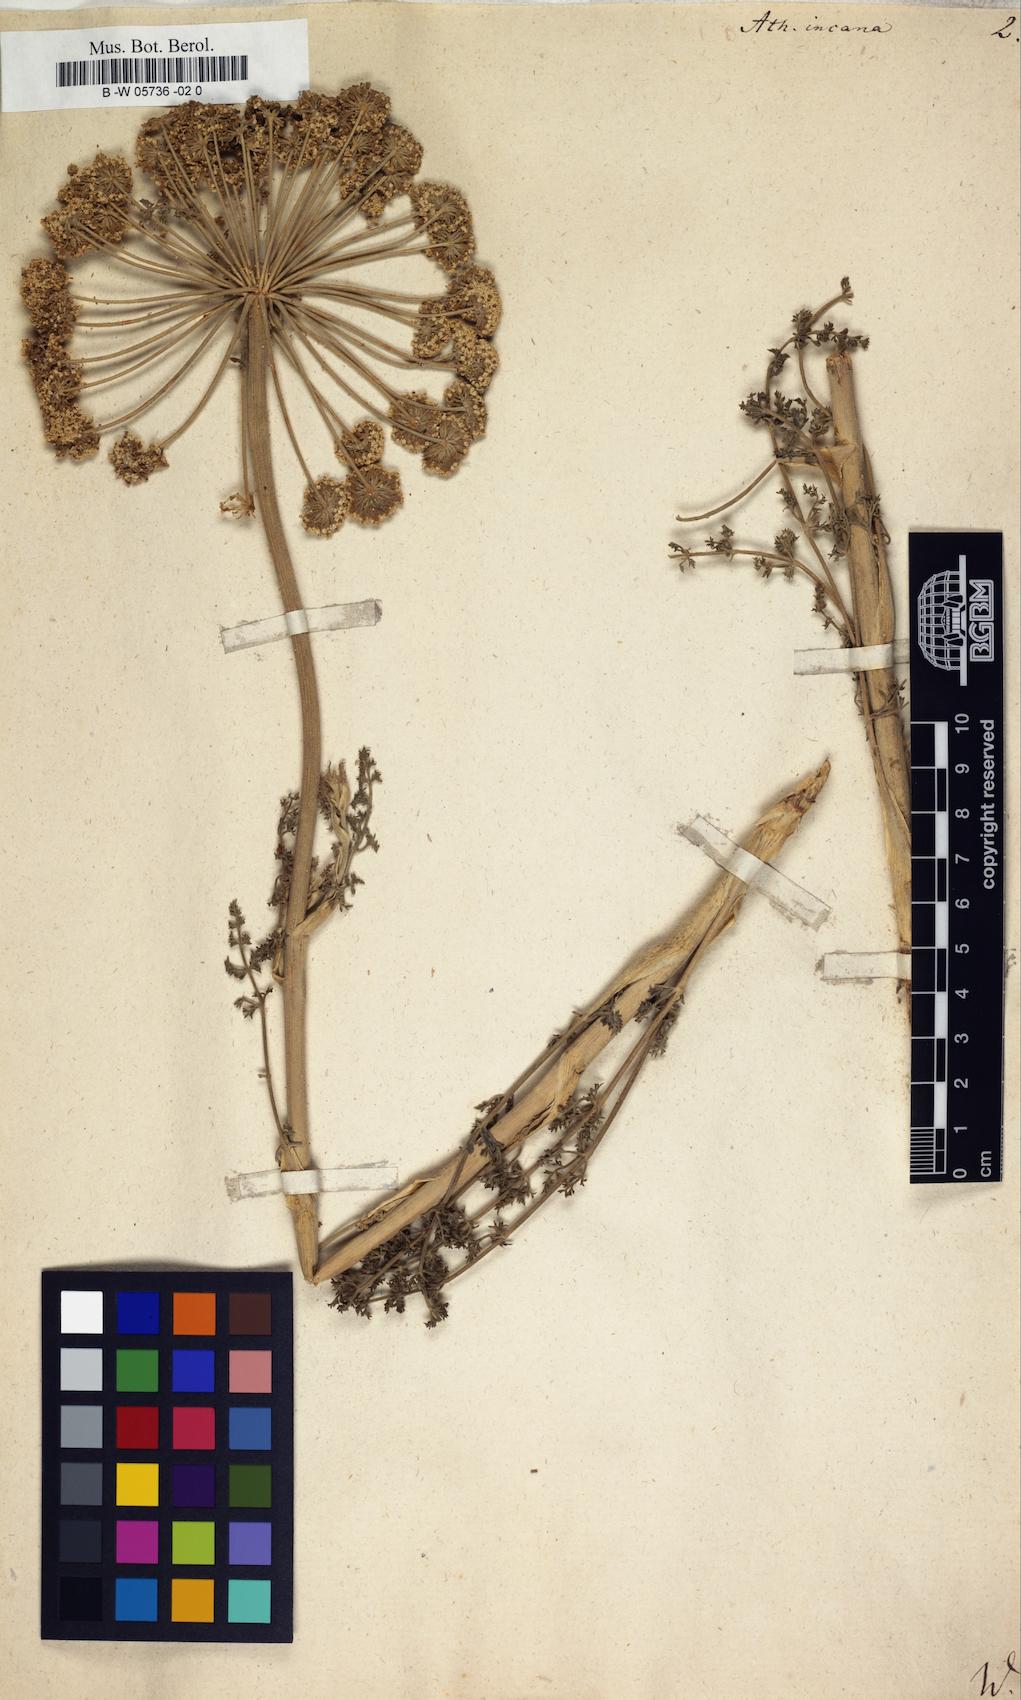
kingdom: Plantae
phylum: Tracheophyta
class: Magnoliopsida
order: Apiales
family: Apiaceae
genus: Seseli
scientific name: Seseli incanum
